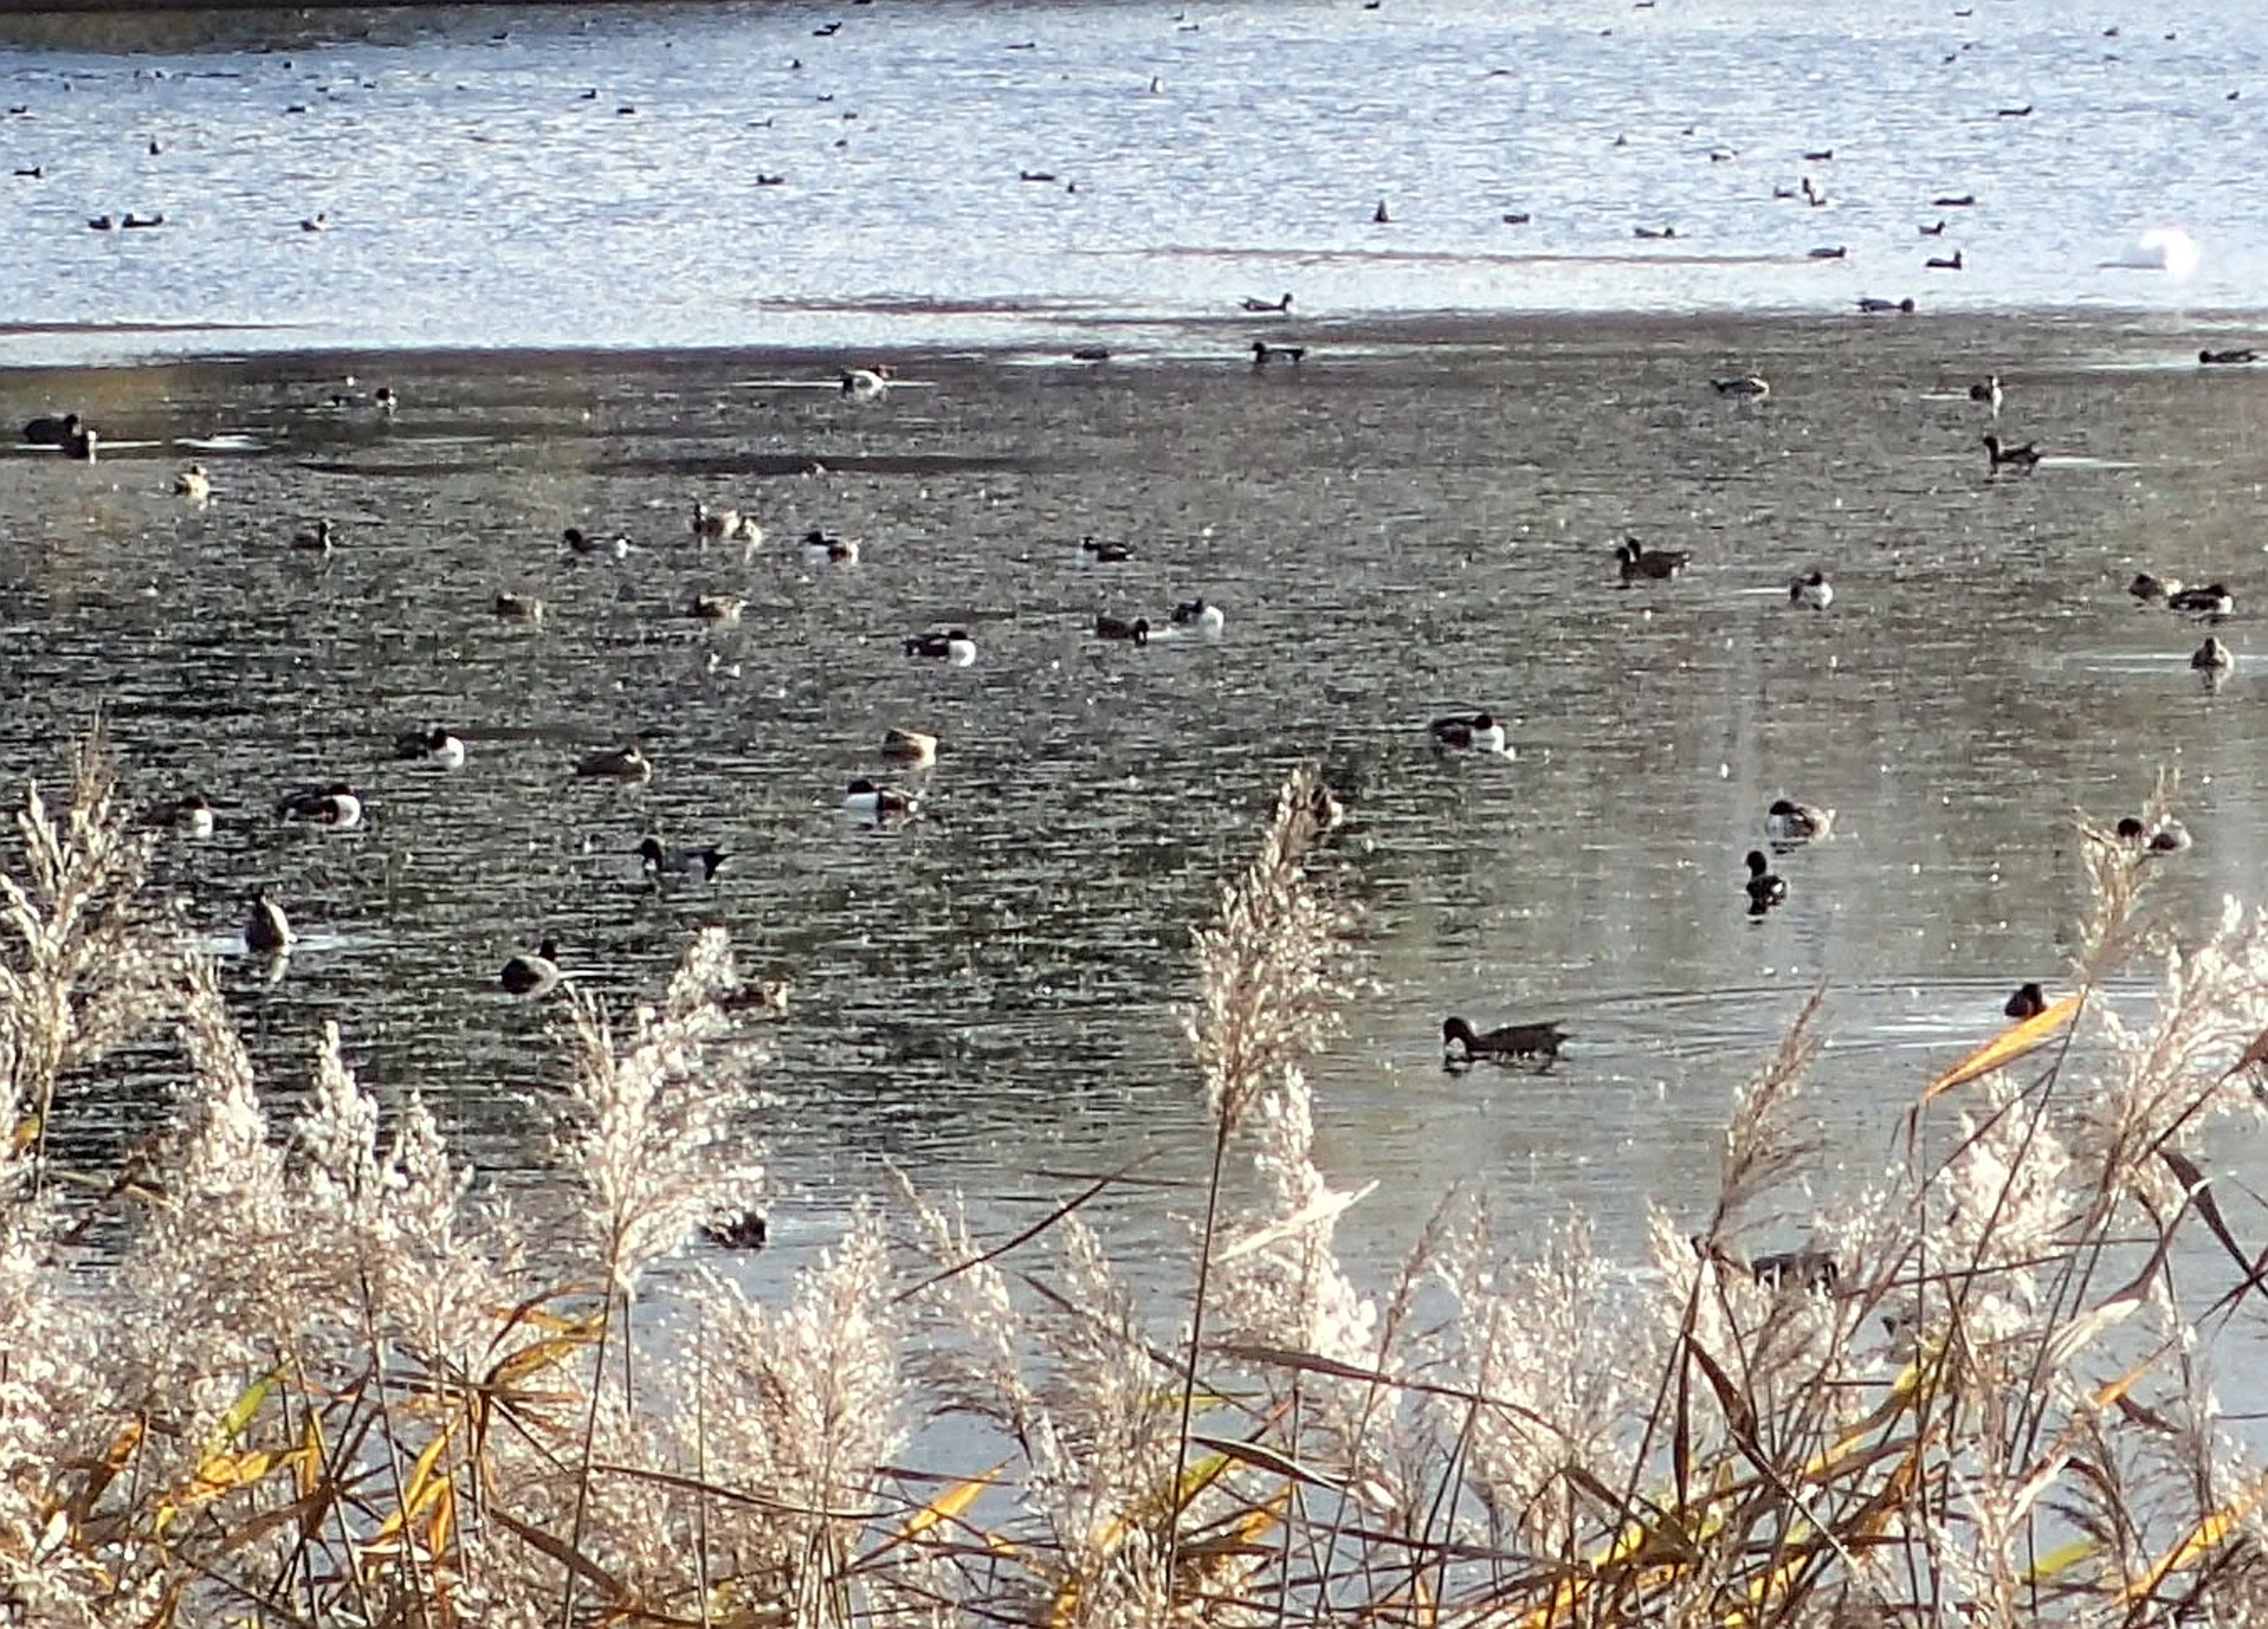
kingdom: Animalia
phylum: Chordata
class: Aves
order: Anseriformes
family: Anatidae
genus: Spatula
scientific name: Spatula clypeata
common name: Skeand
